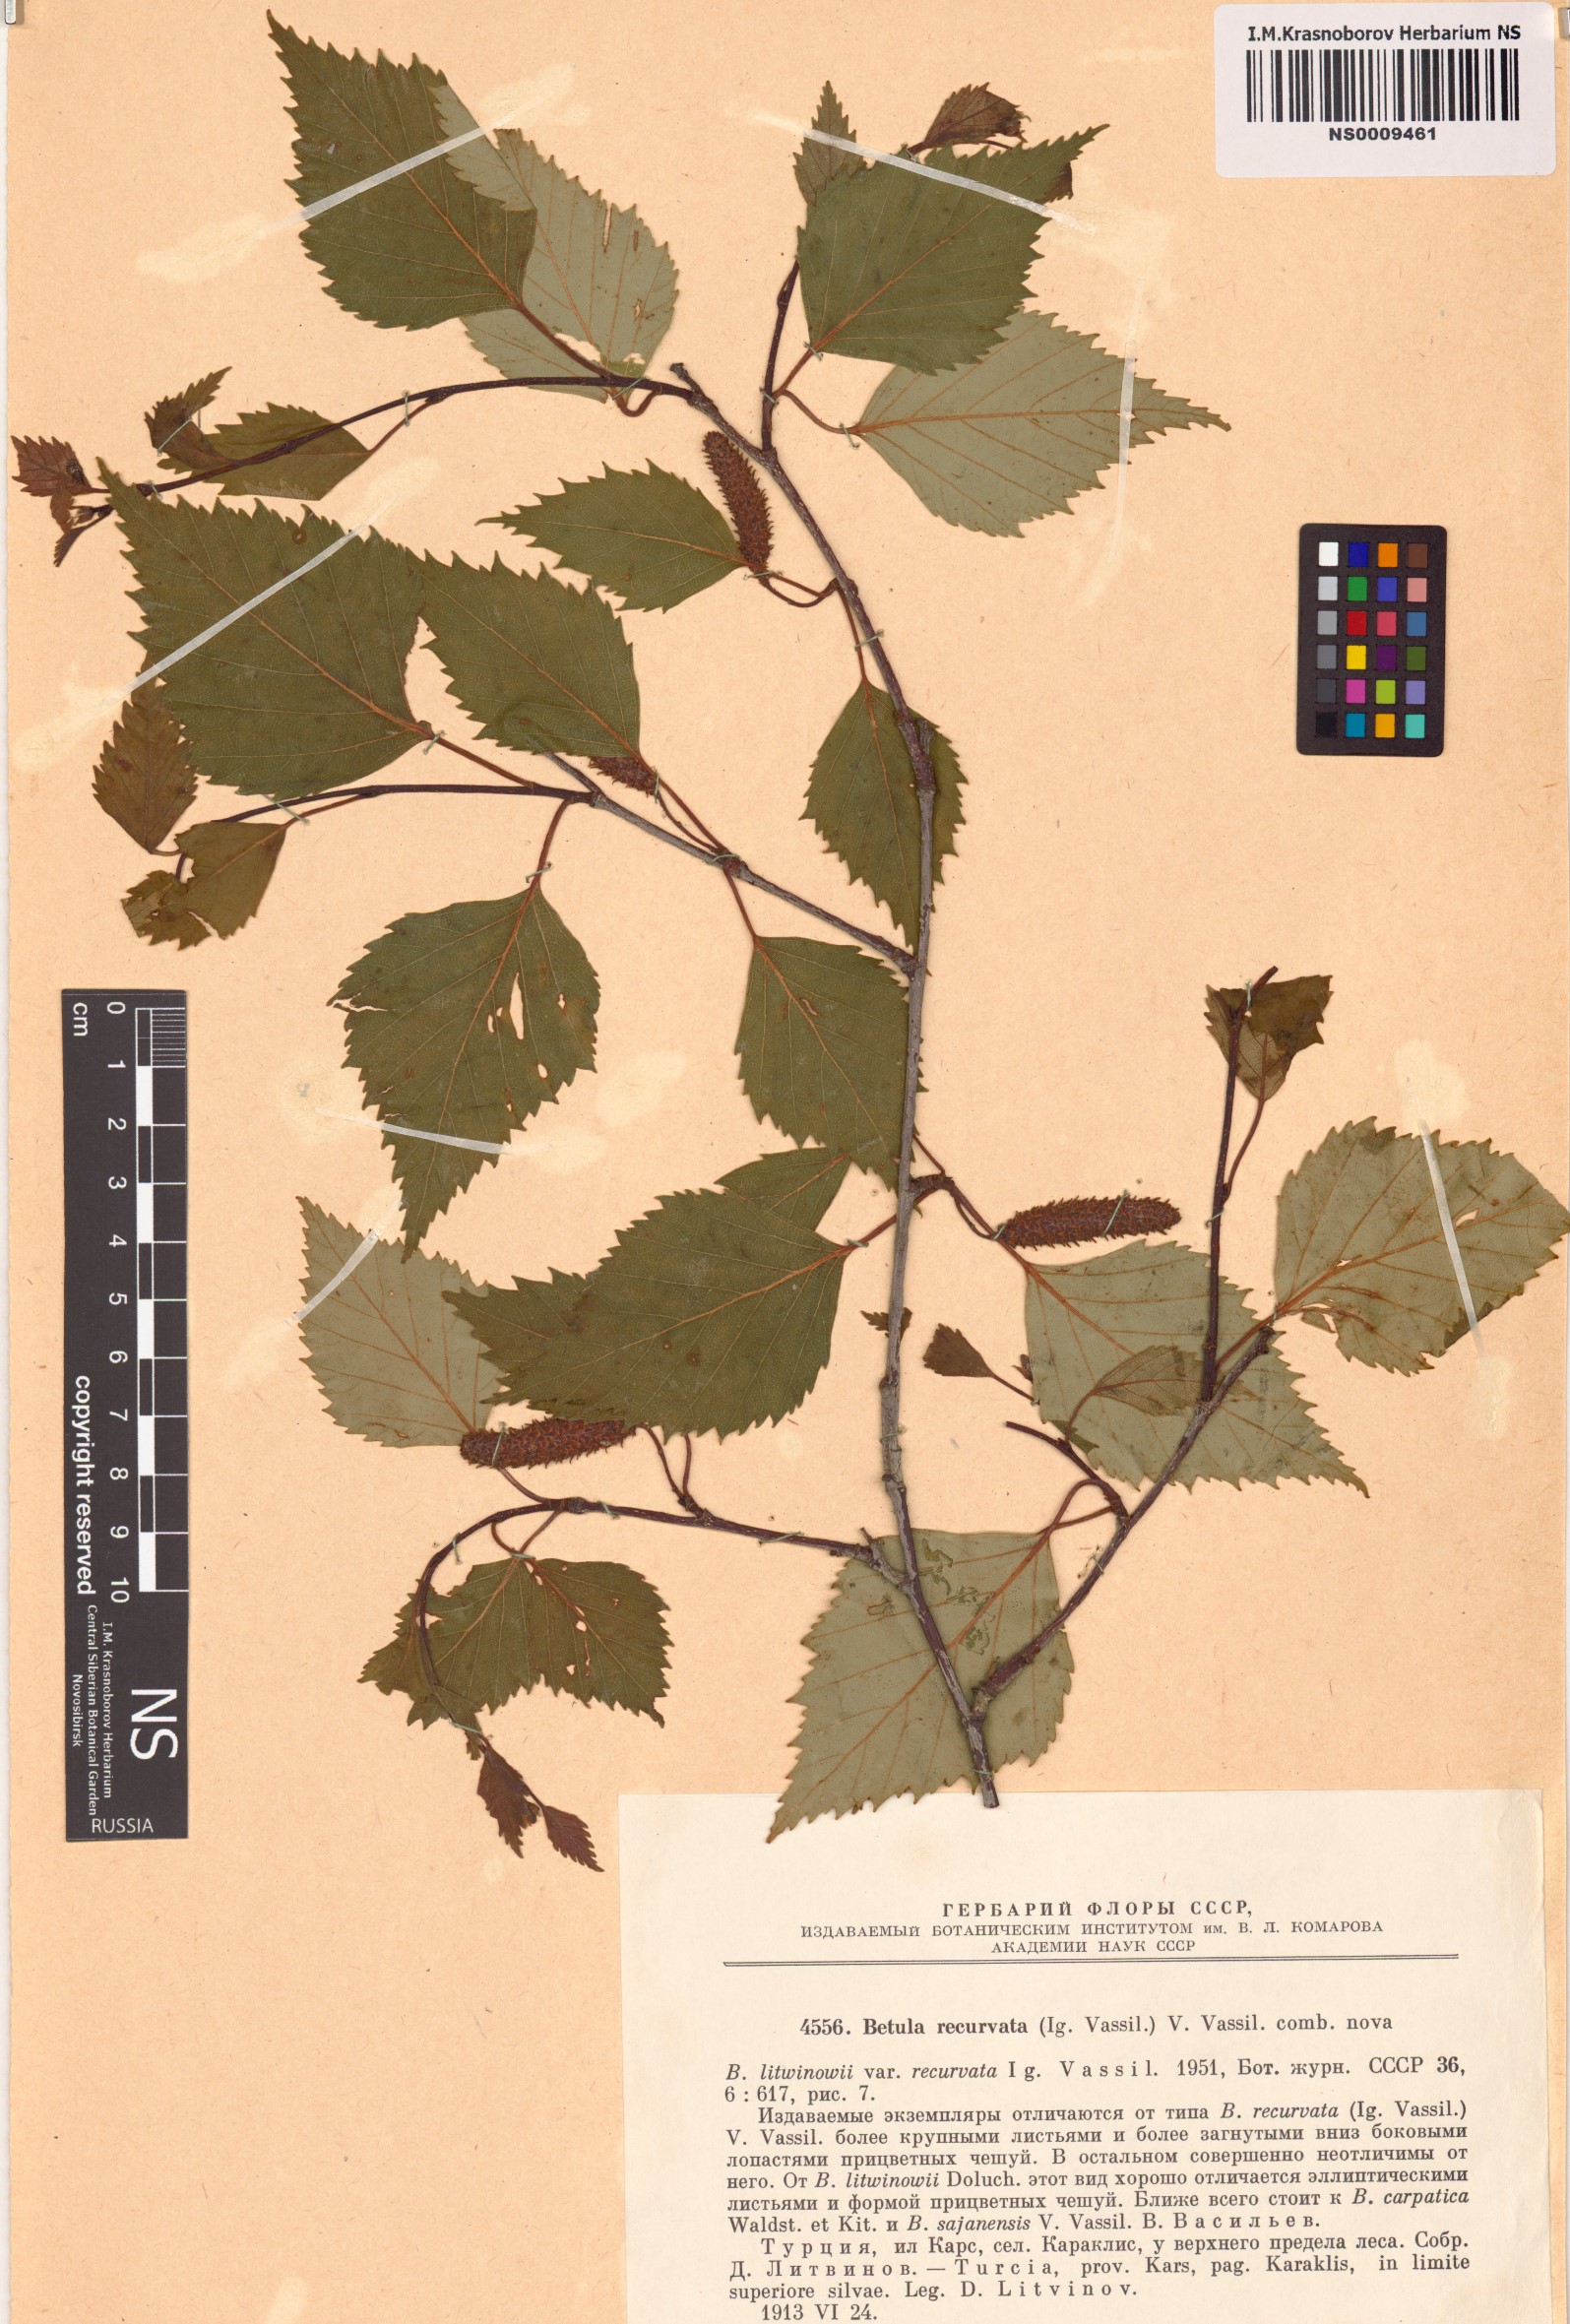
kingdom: Plantae
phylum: Tracheophyta
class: Magnoliopsida
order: Fagales
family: Betulaceae
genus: Betula
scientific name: Betula pubescens
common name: Downy birch
